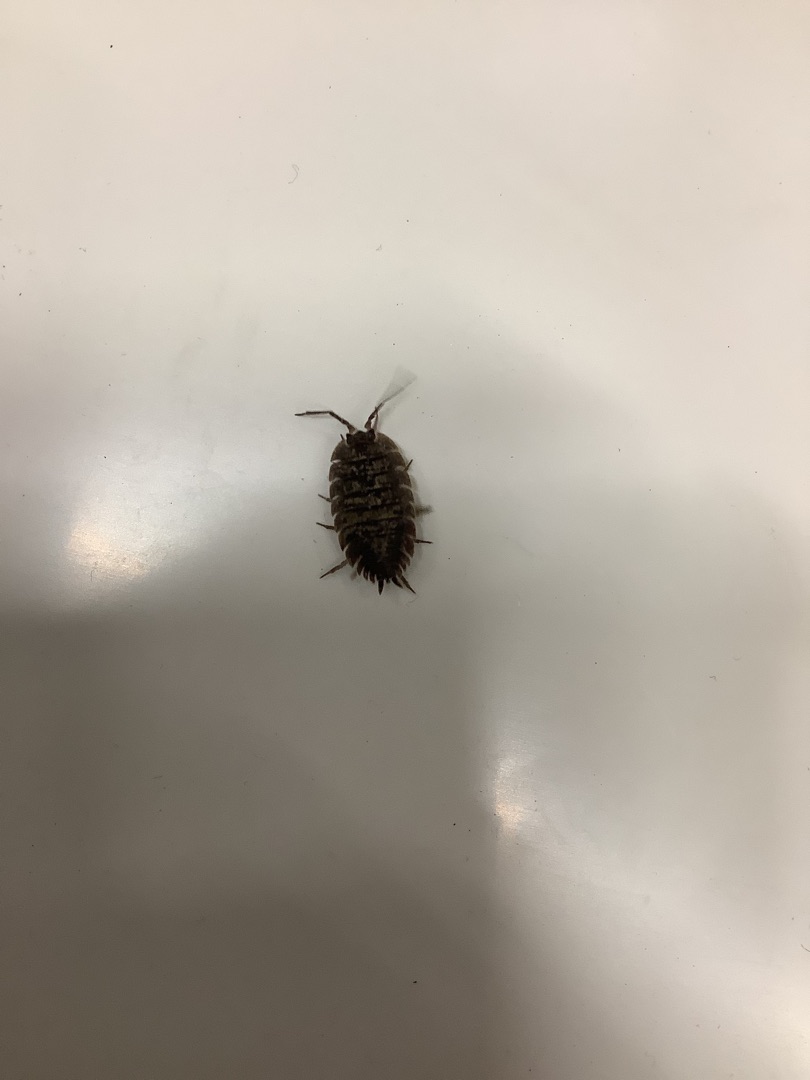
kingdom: Animalia
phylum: Arthropoda
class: Malacostraca
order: Isopoda
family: Porcellionidae
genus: Porcellio
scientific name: Porcellio scaber
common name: Grå bænkebider
